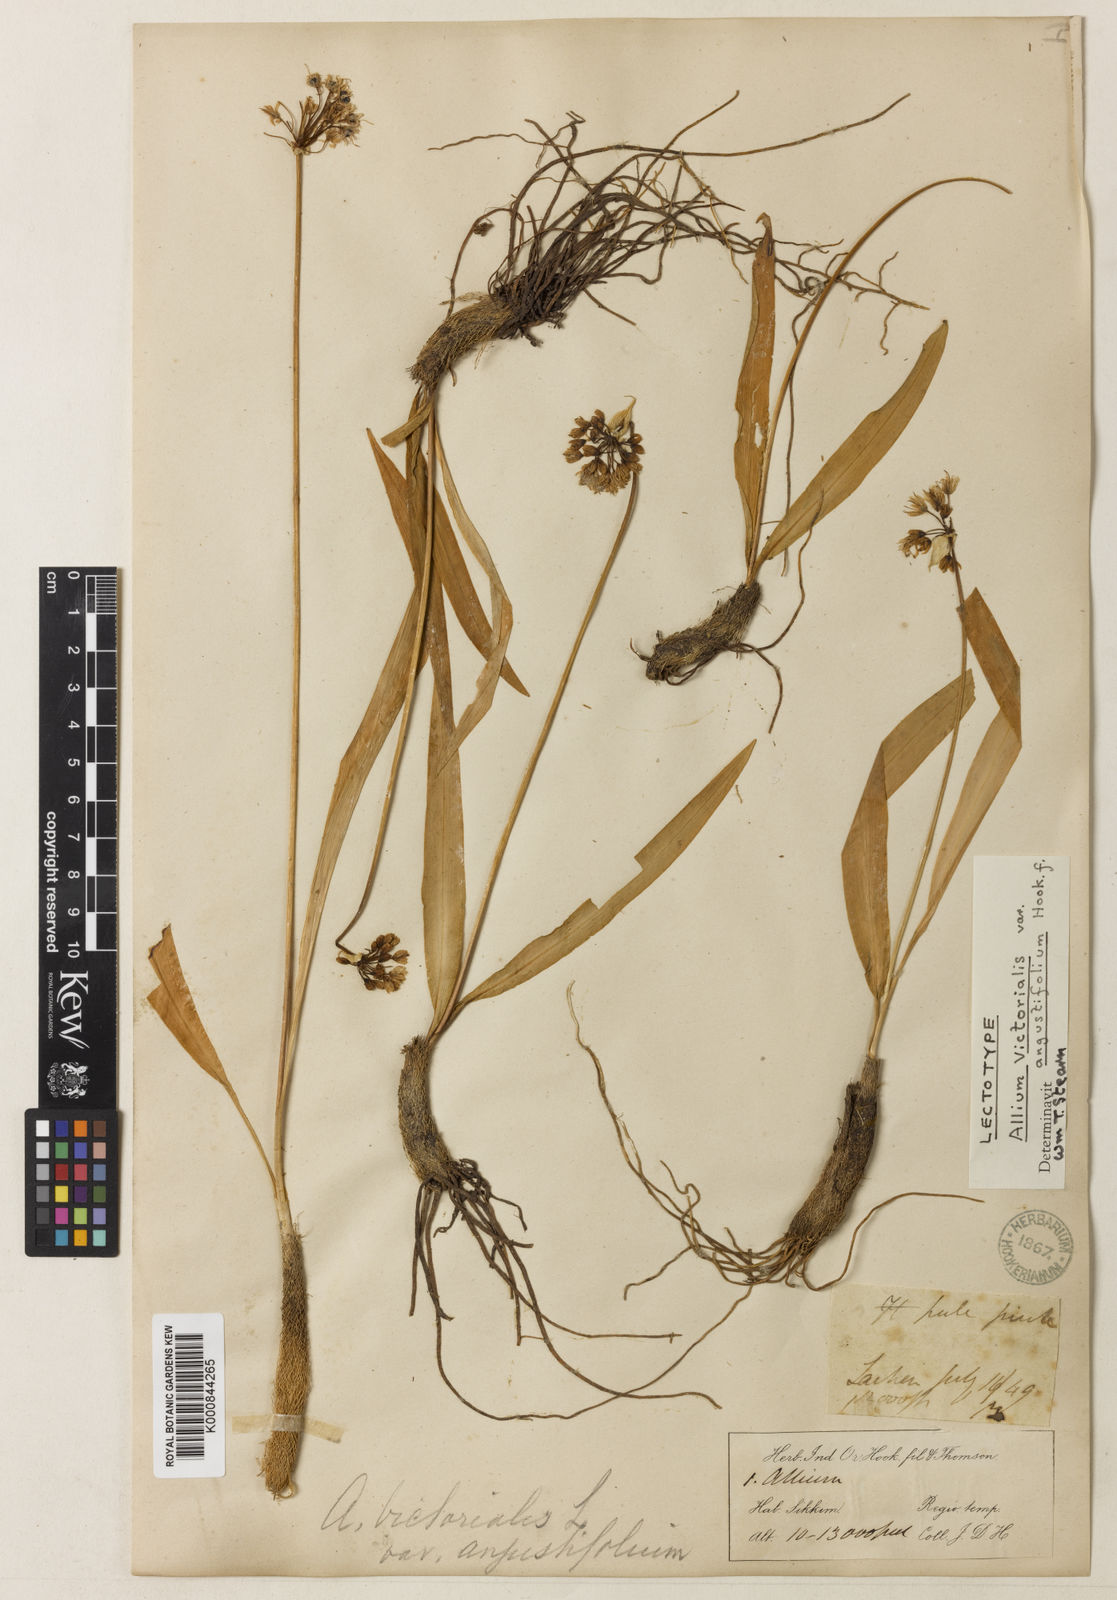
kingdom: Plantae
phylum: Tracheophyta
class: Liliopsida
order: Asparagales
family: Amaryllidaceae
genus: Allium
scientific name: Allium victorialis
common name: Alpine leek
